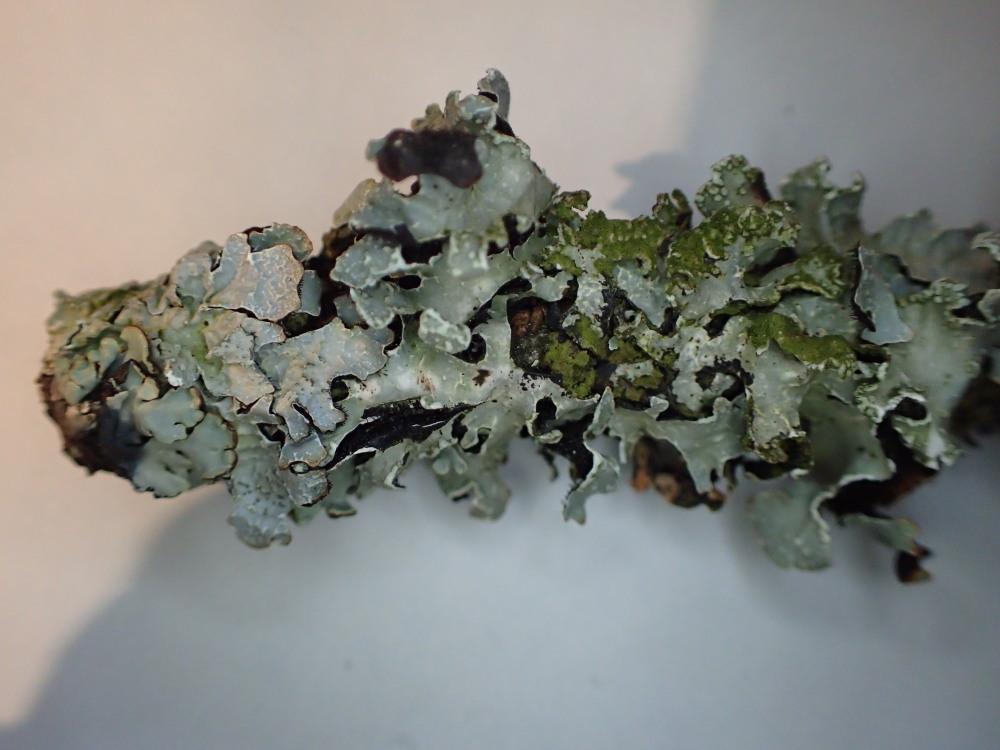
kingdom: Fungi
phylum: Ascomycota
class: Lecanoromycetes
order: Lecanorales
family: Parmeliaceae
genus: Parmelia
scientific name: Parmelia sulcata
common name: rynket skållav
